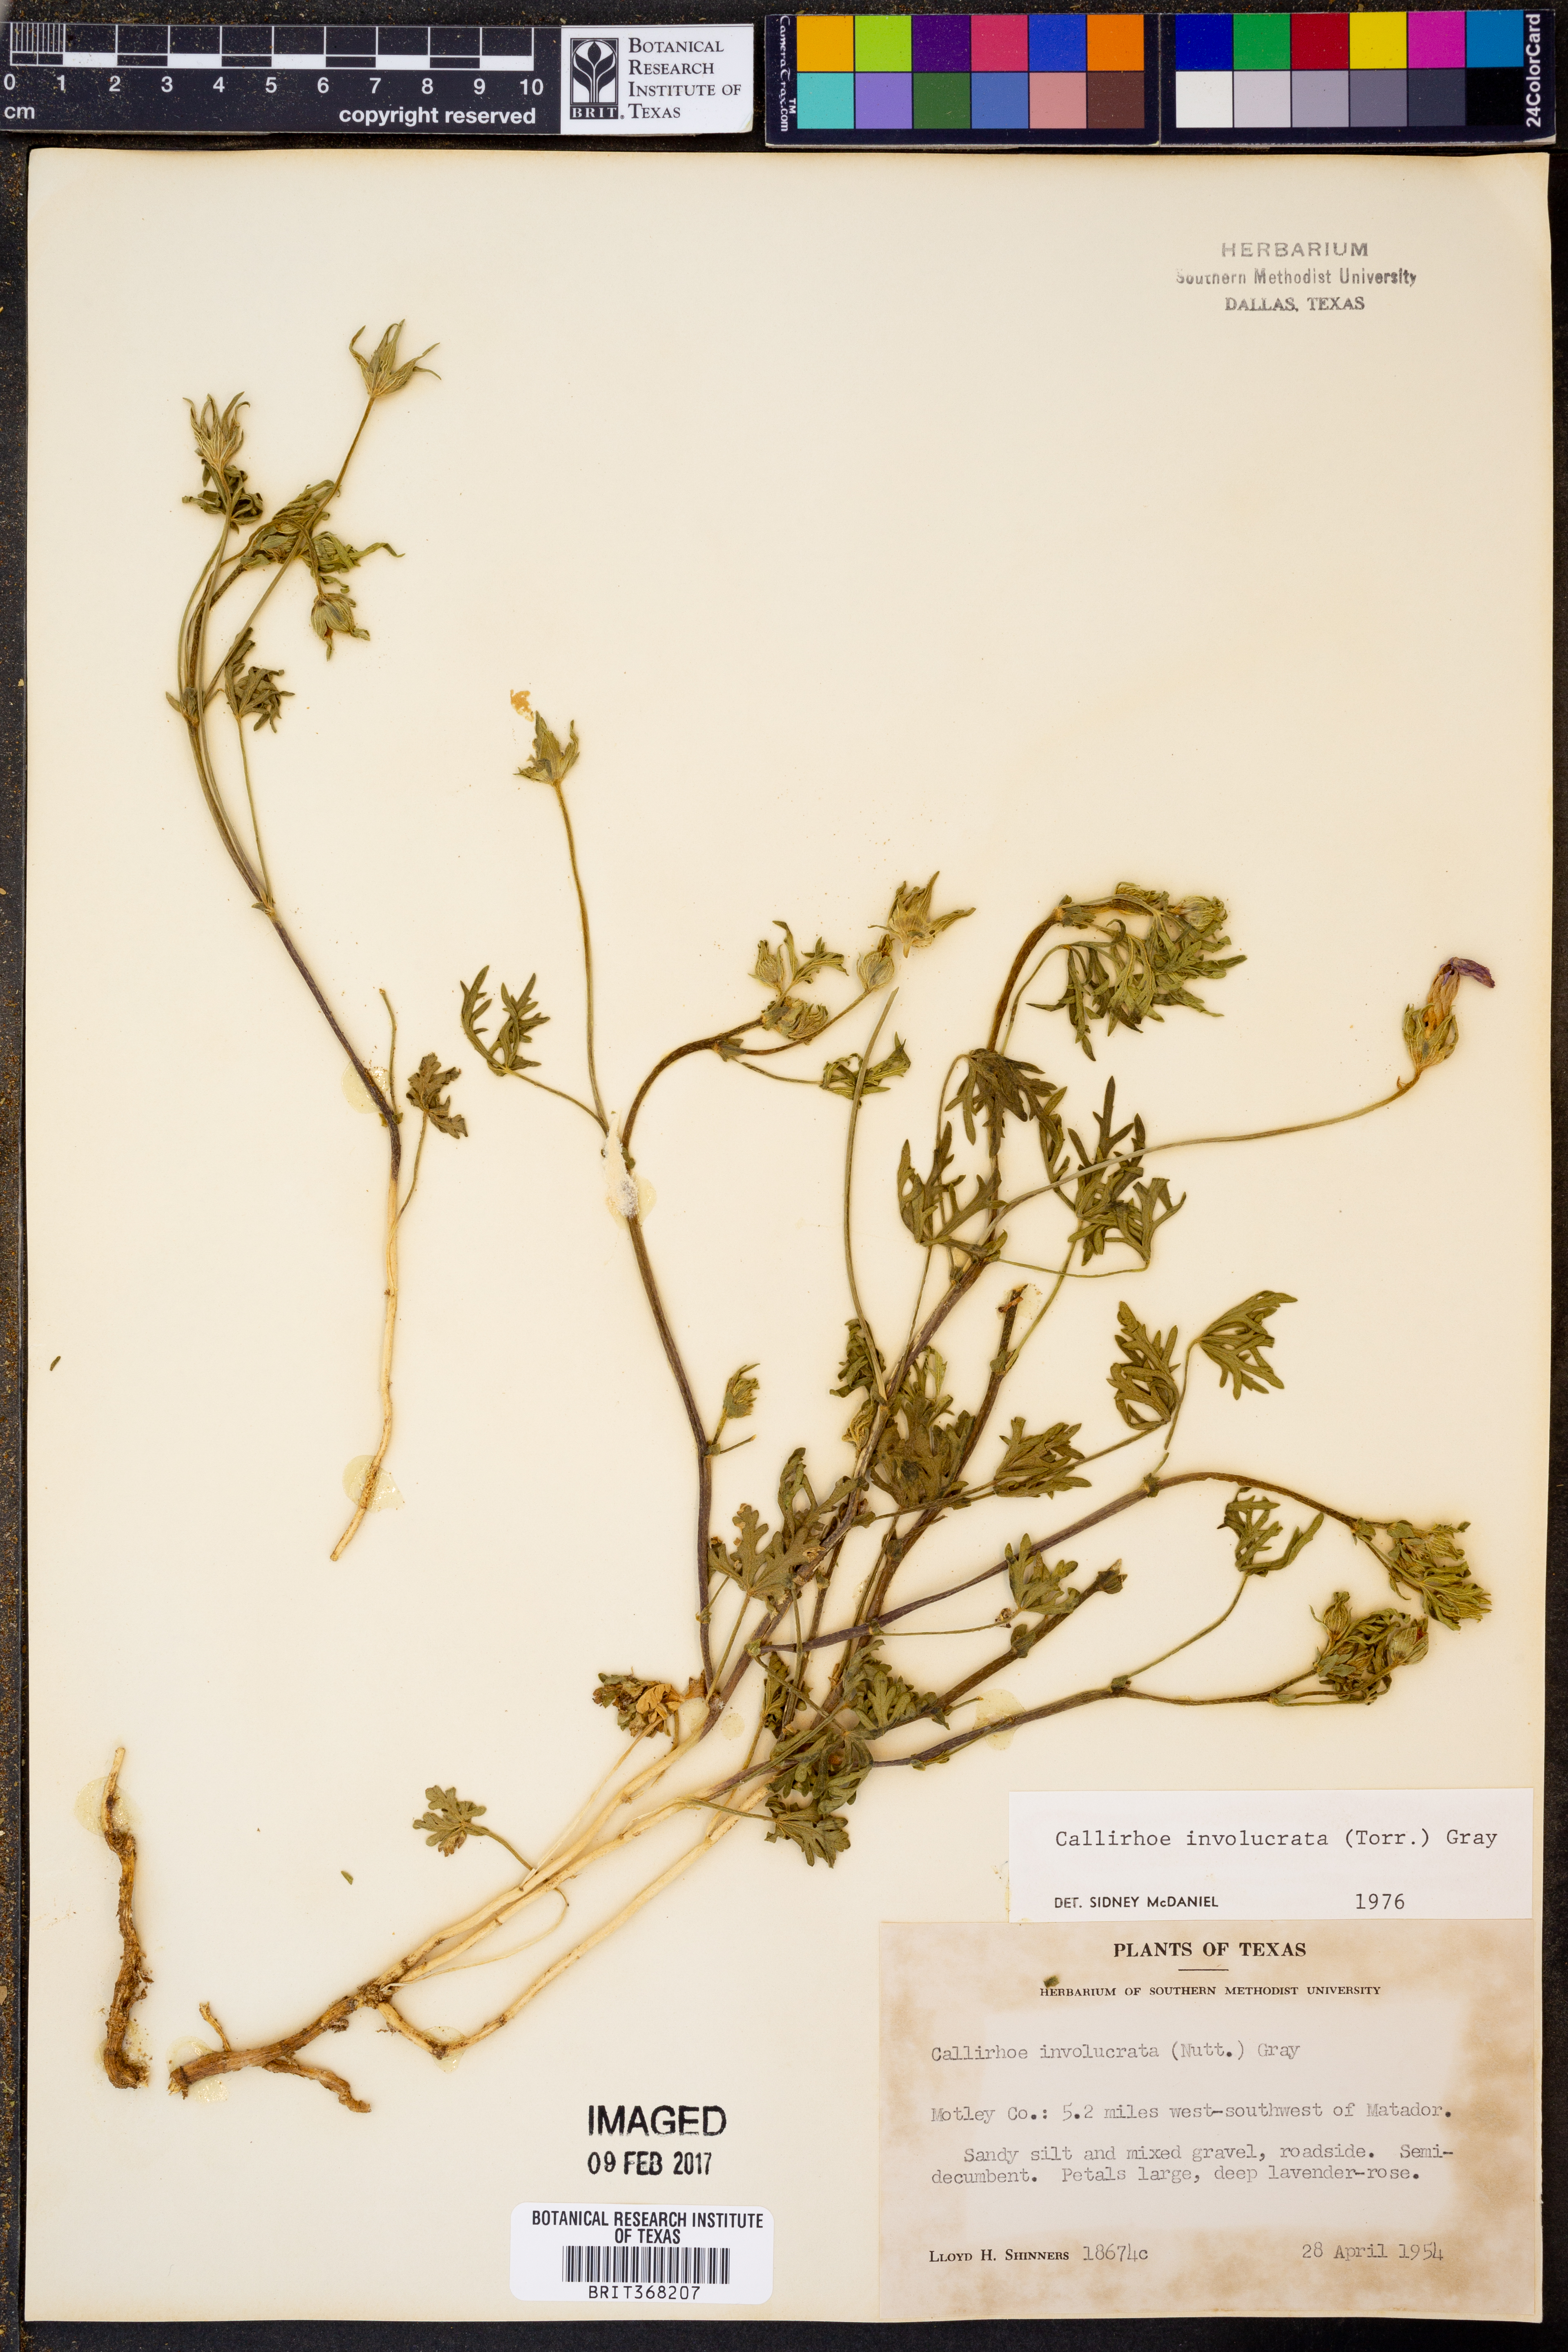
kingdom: Plantae
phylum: Tracheophyta
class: Magnoliopsida
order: Malvales
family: Malvaceae
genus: Callirhoe
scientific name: Callirhoe involucrata
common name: Purple poppy-mallow
